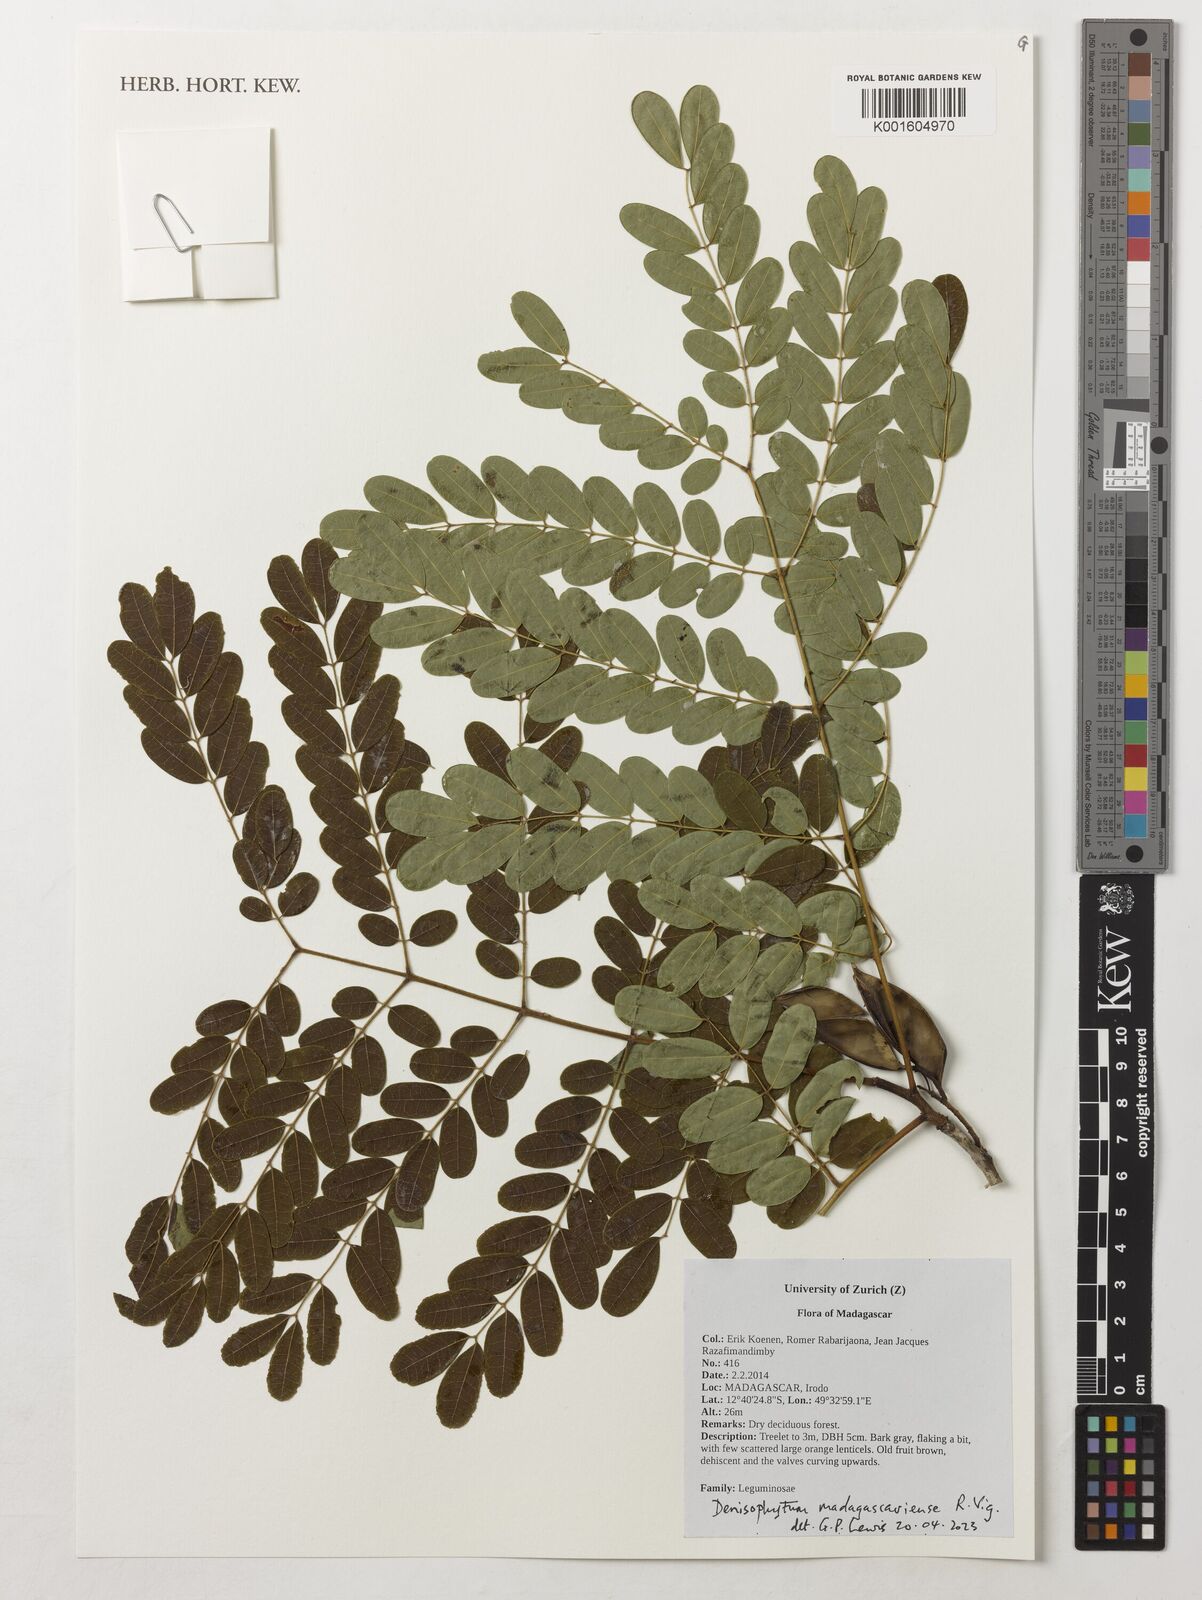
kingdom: Plantae
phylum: Tracheophyta
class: Magnoliopsida
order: Fabales
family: Fabaceae
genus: Denisophytum
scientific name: Denisophytum madagascariense
